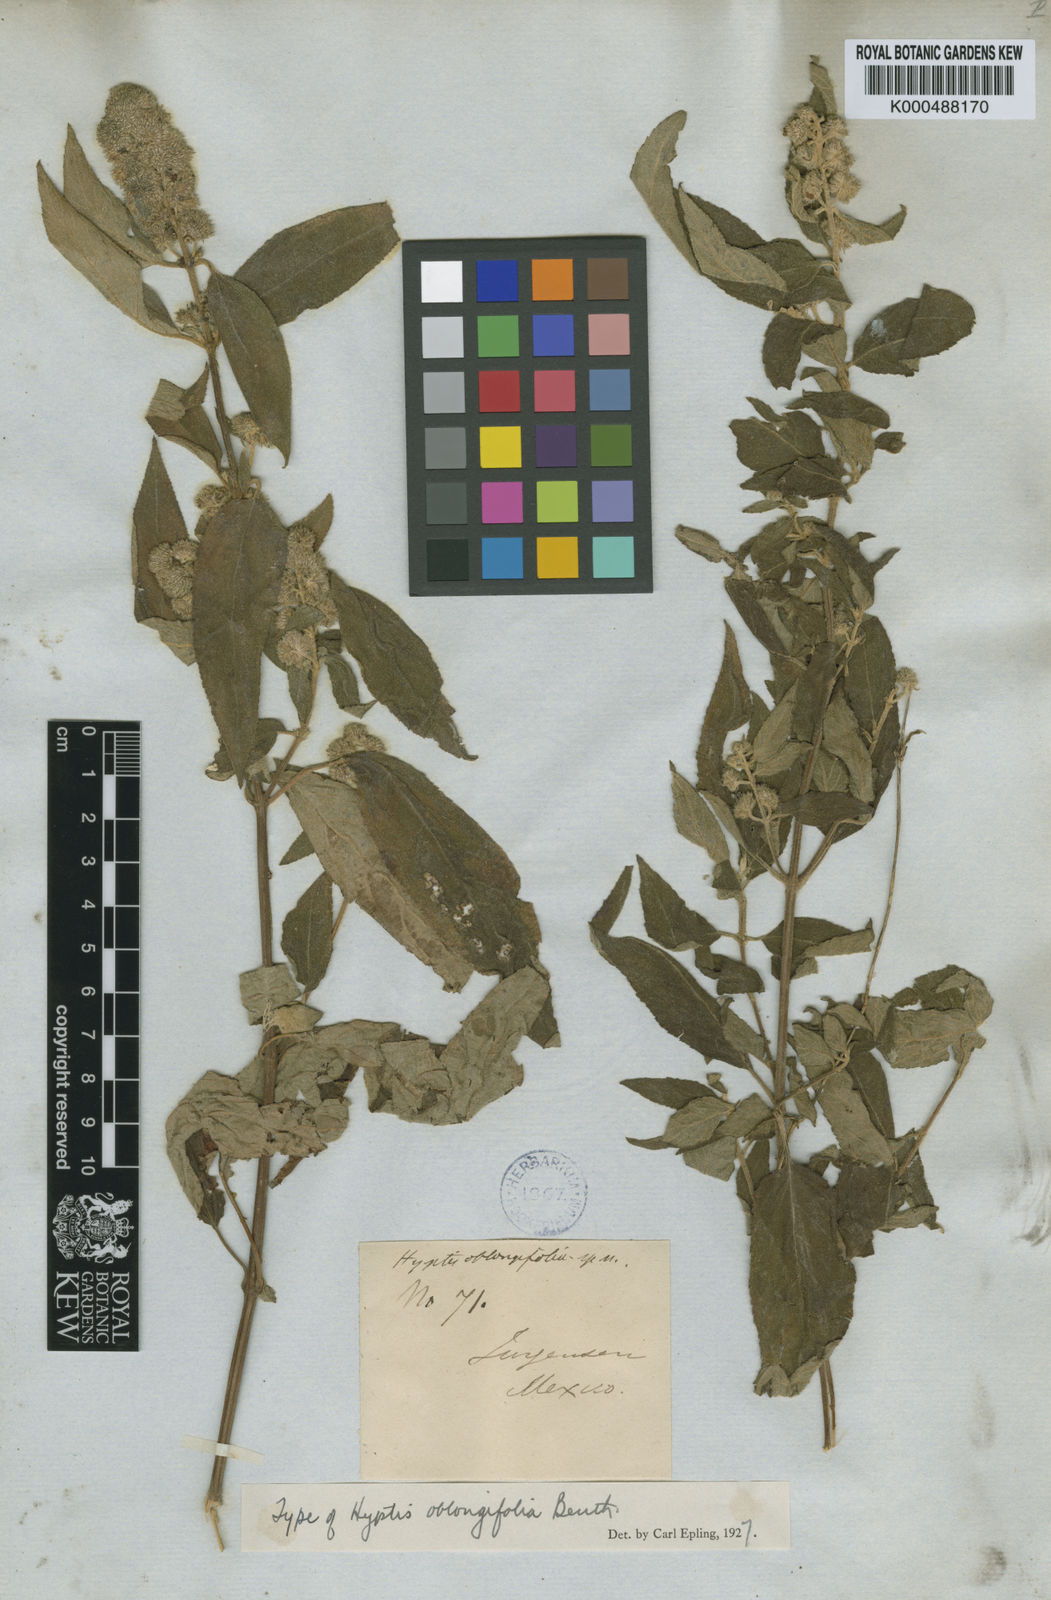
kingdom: Plantae
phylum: Tracheophyta
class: Magnoliopsida
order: Lamiales
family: Lamiaceae
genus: Mesosphaerum
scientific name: Mesosphaerum oblongifolium
